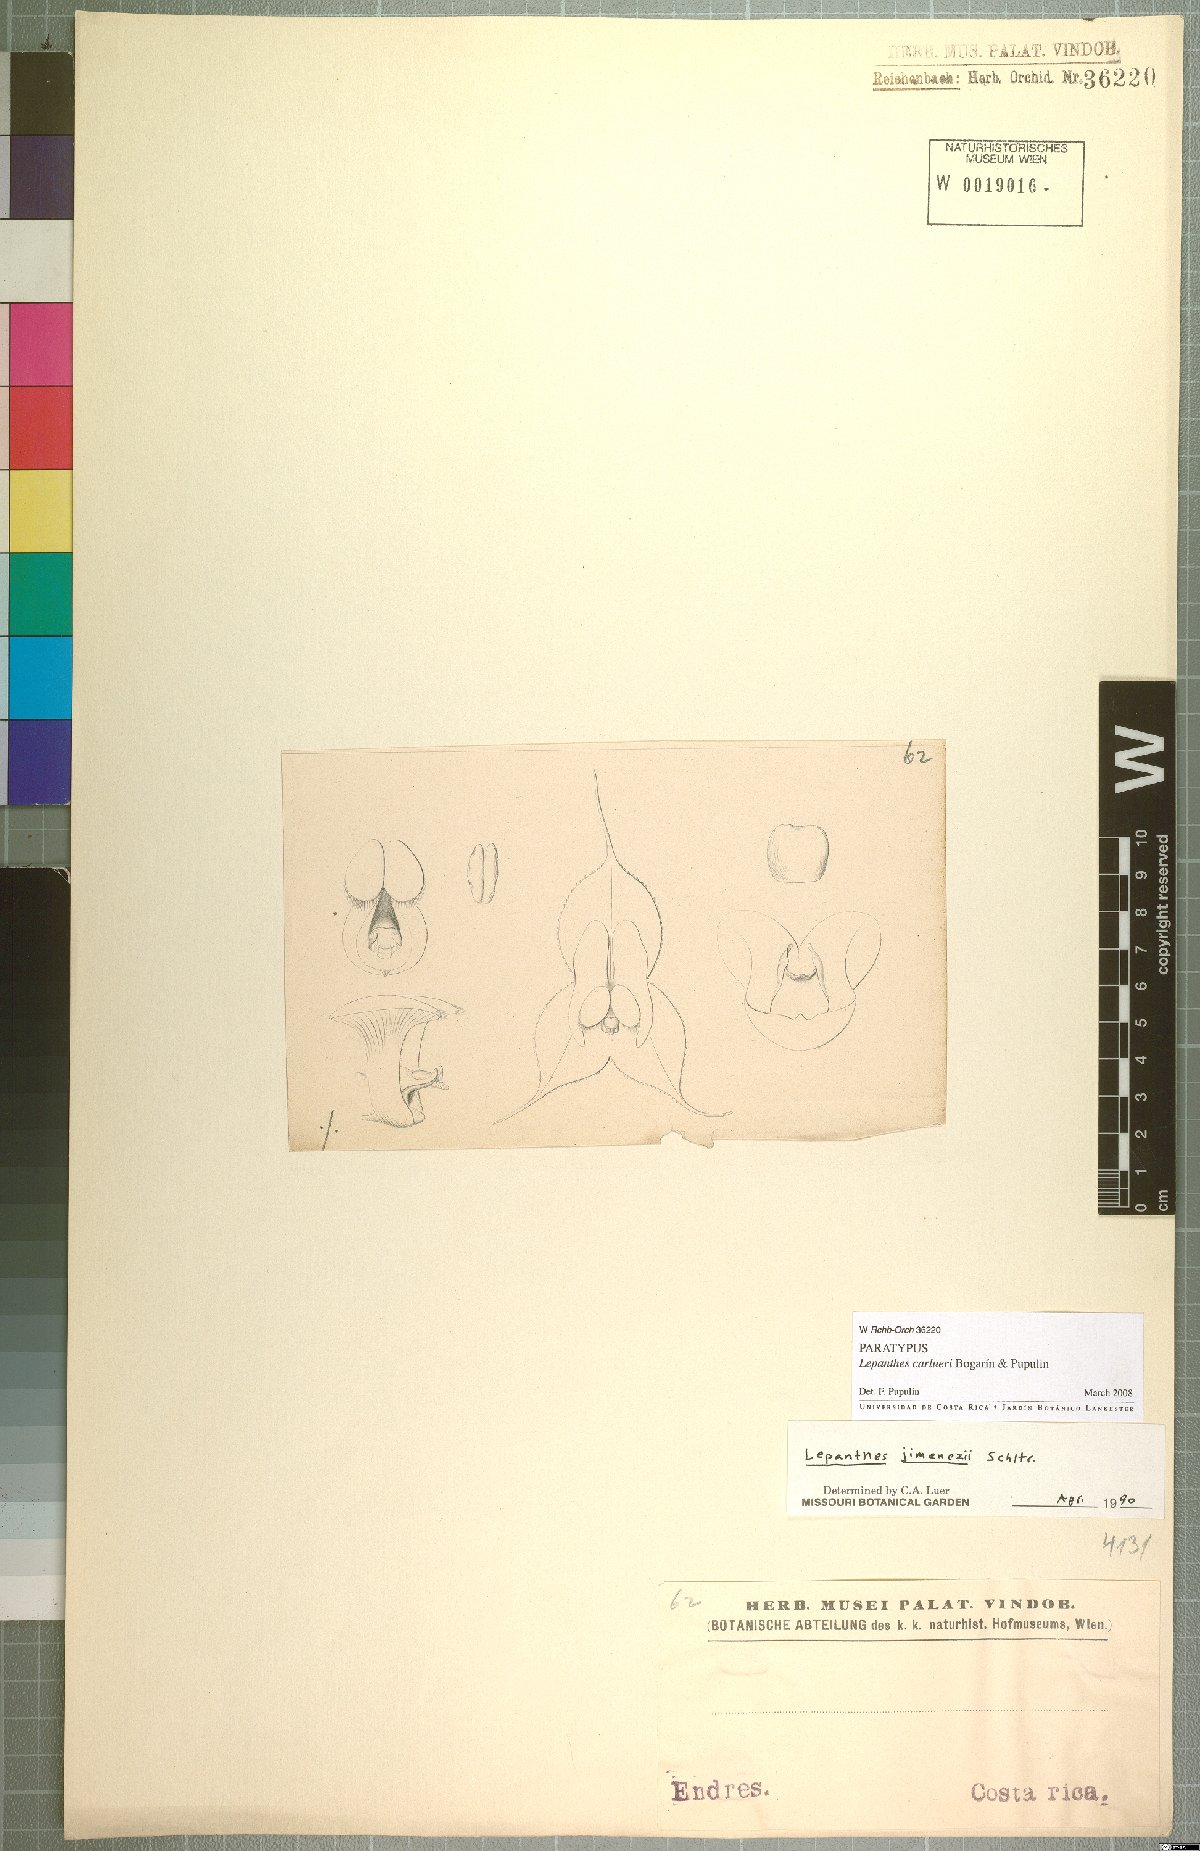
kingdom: Plantae
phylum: Tracheophyta
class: Liliopsida
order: Asparagales
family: Orchidaceae
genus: Lepanthes
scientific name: Lepanthes caroli-lueri
